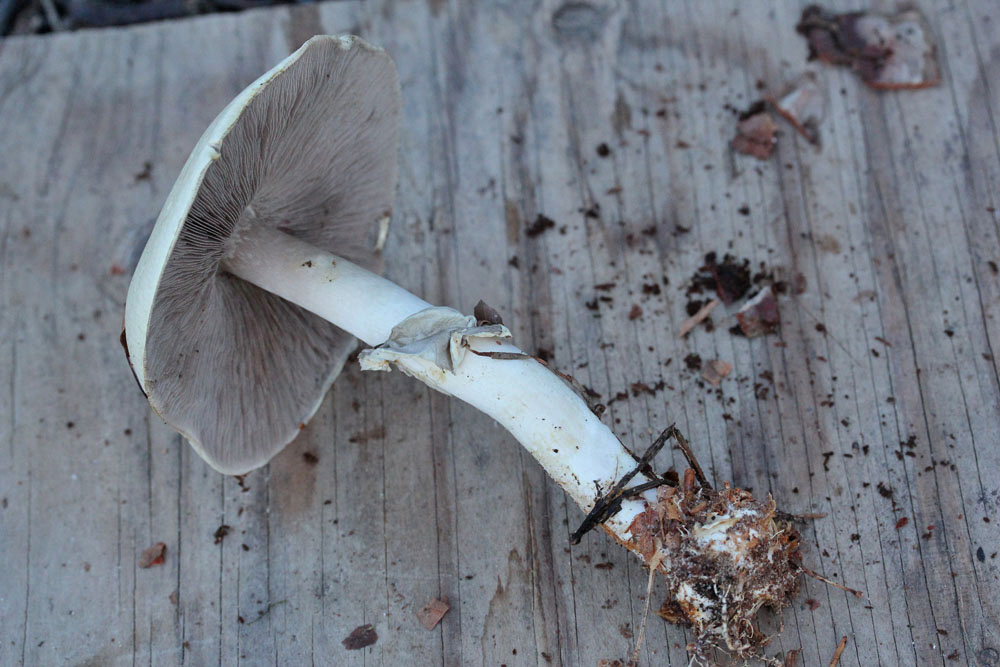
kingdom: Fungi
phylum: Basidiomycota
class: Agaricomycetes
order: Agaricales
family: Agaricaceae
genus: Agaricus
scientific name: Agaricus sylvicola
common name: skiveknoldet champignon
